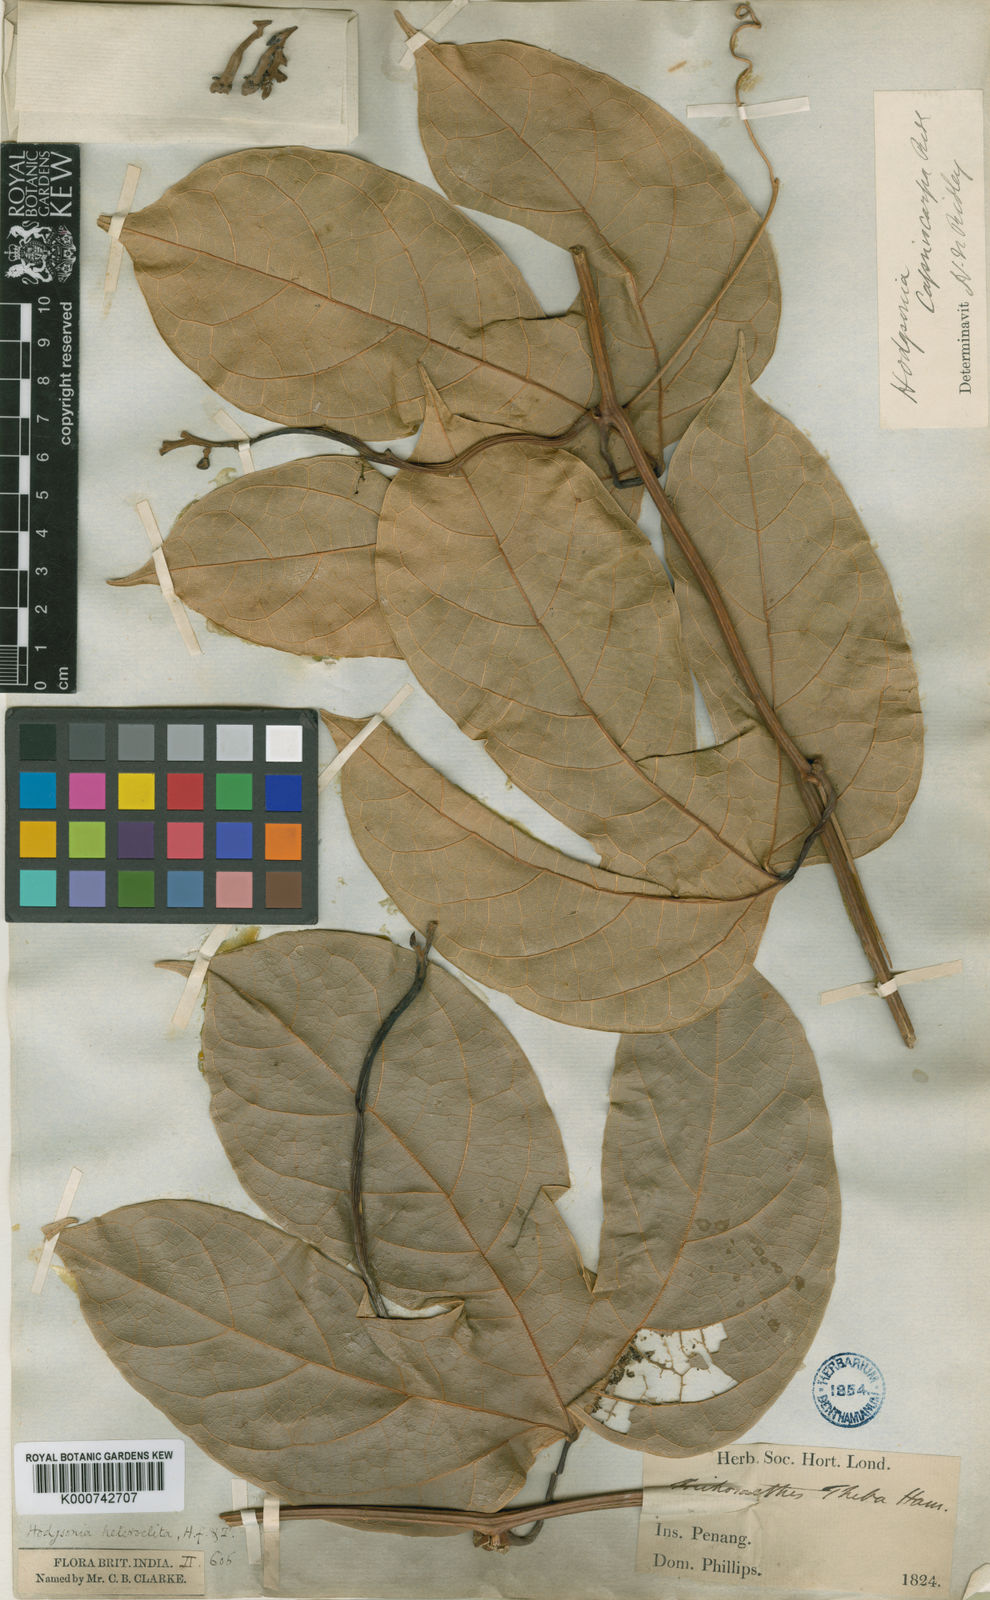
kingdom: Plantae
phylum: Tracheophyta
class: Magnoliopsida
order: Cucurbitales
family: Cucurbitaceae
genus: Hodgsonia
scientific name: Hodgsonia macrocarpa
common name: Chinese lardfruit
